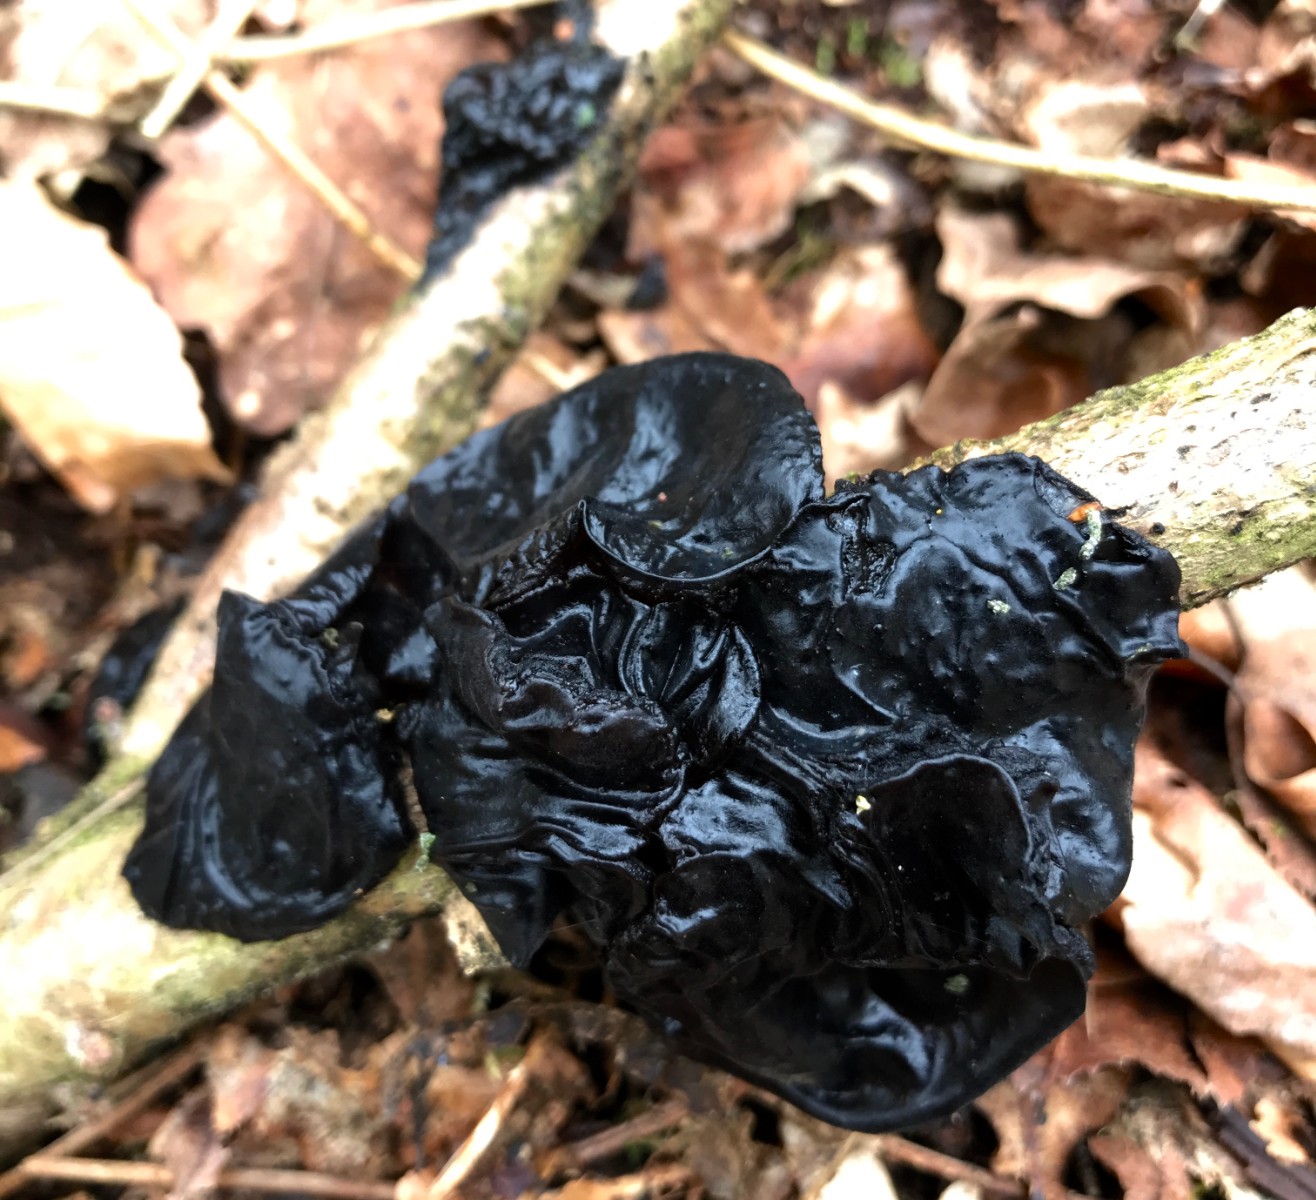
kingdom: Fungi
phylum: Basidiomycota
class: Agaricomycetes
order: Auriculariales
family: Auriculariaceae
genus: Exidia
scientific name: Exidia nigricans
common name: almindelig bævretop
